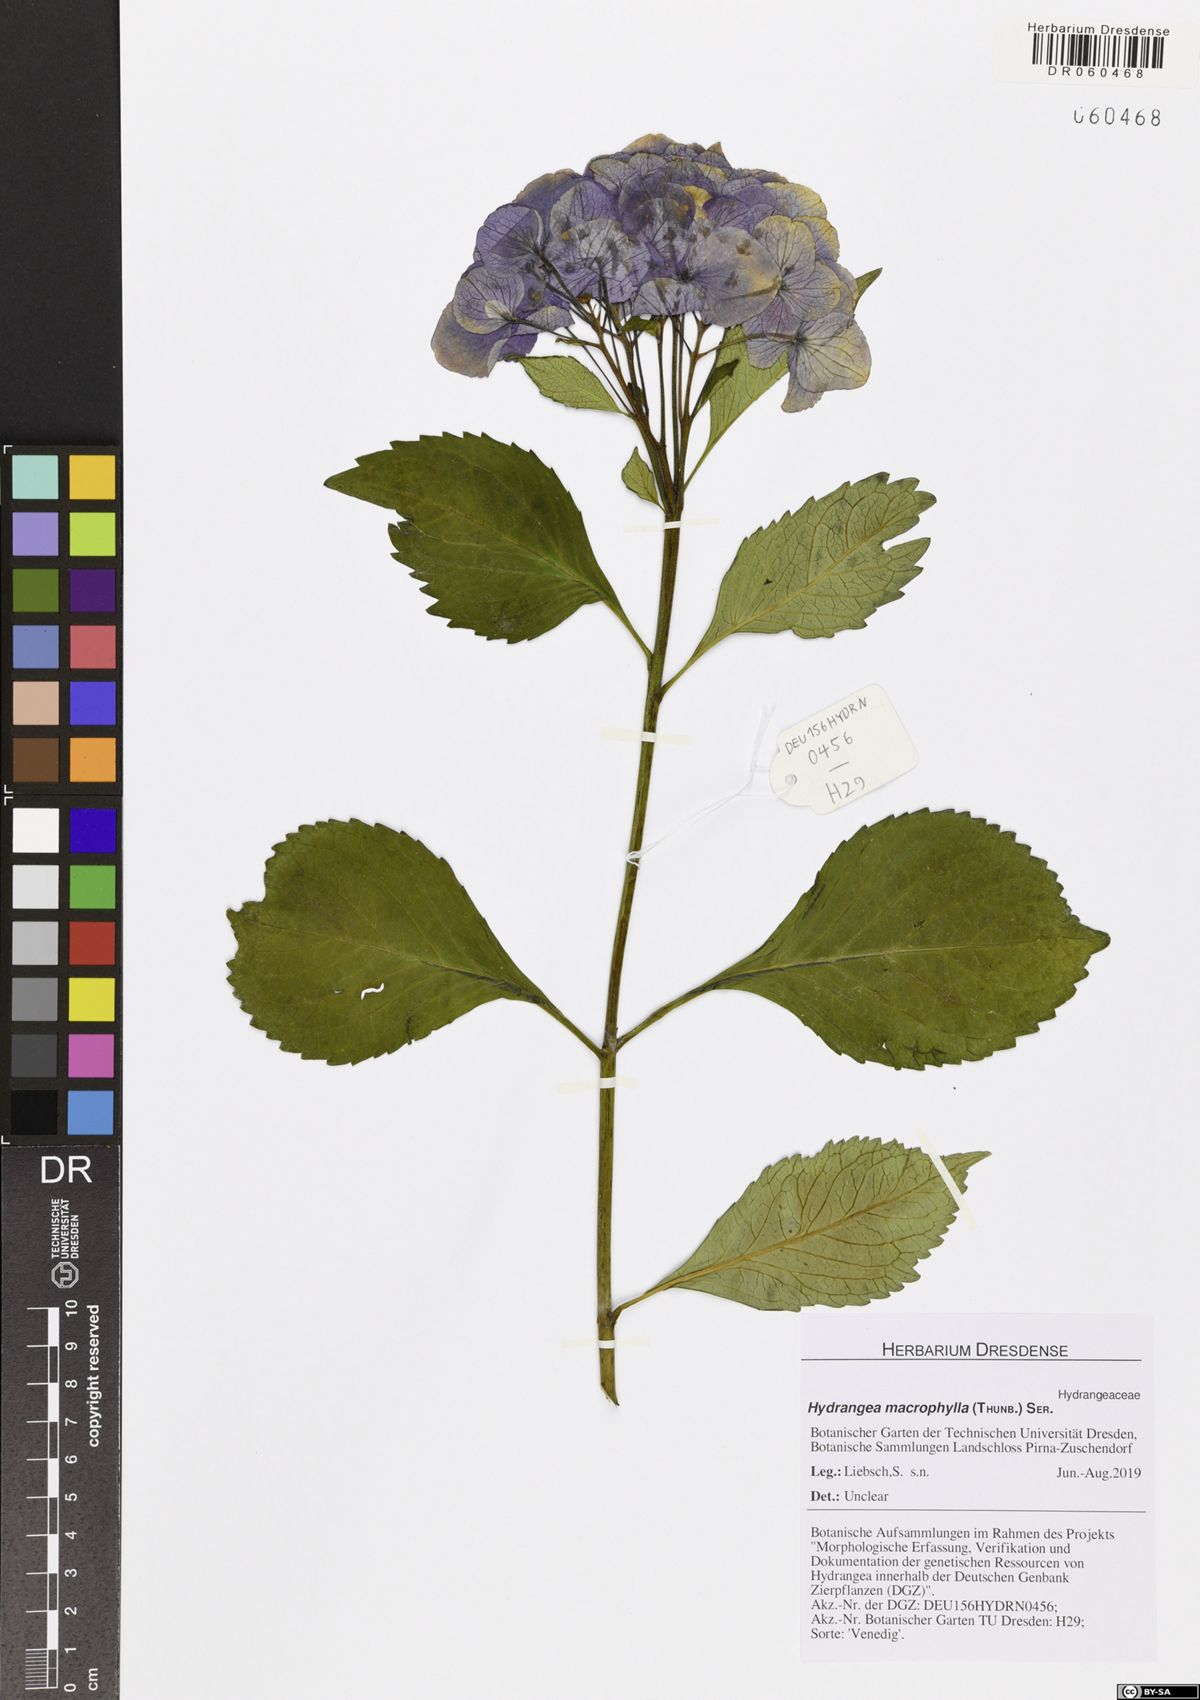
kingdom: Plantae
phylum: Tracheophyta
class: Magnoliopsida
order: Cornales
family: Hydrangeaceae
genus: Hydrangea
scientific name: Hydrangea macrophylla
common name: Hydrangea
